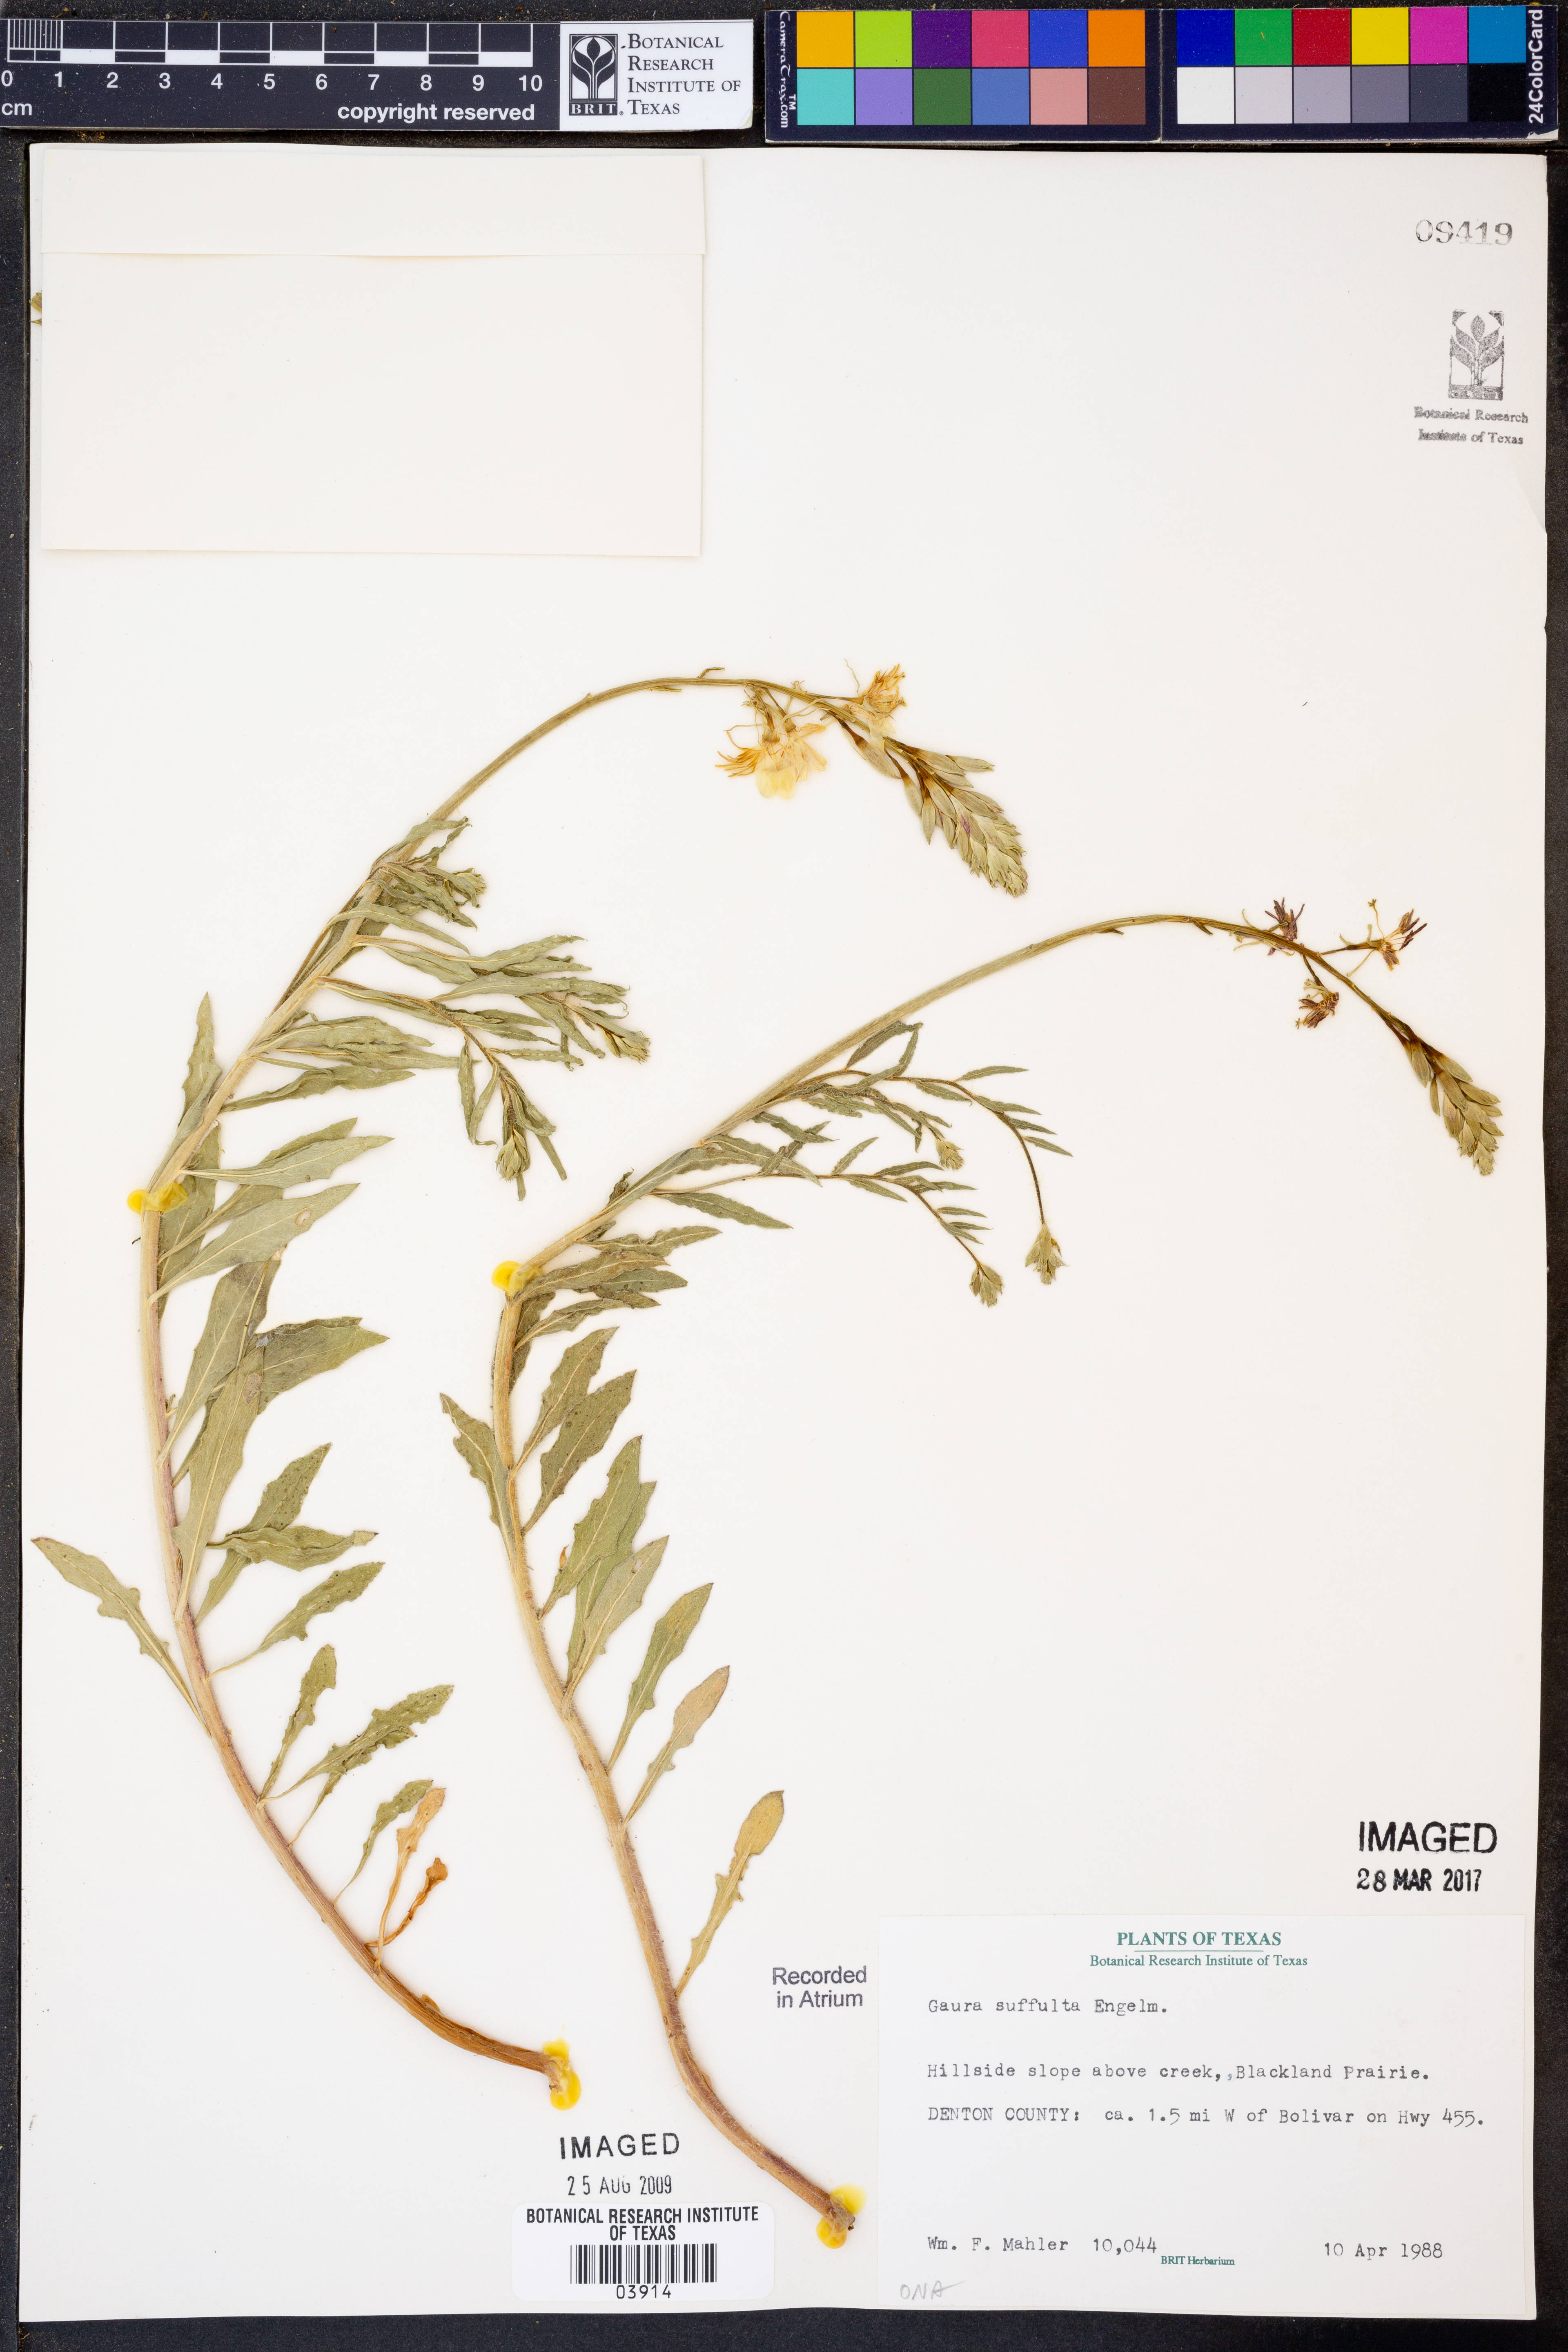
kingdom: Plantae
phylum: Tracheophyta
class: Magnoliopsida
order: Myrtales
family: Onagraceae
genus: Oenothera
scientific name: Oenothera Gaura suffulta
